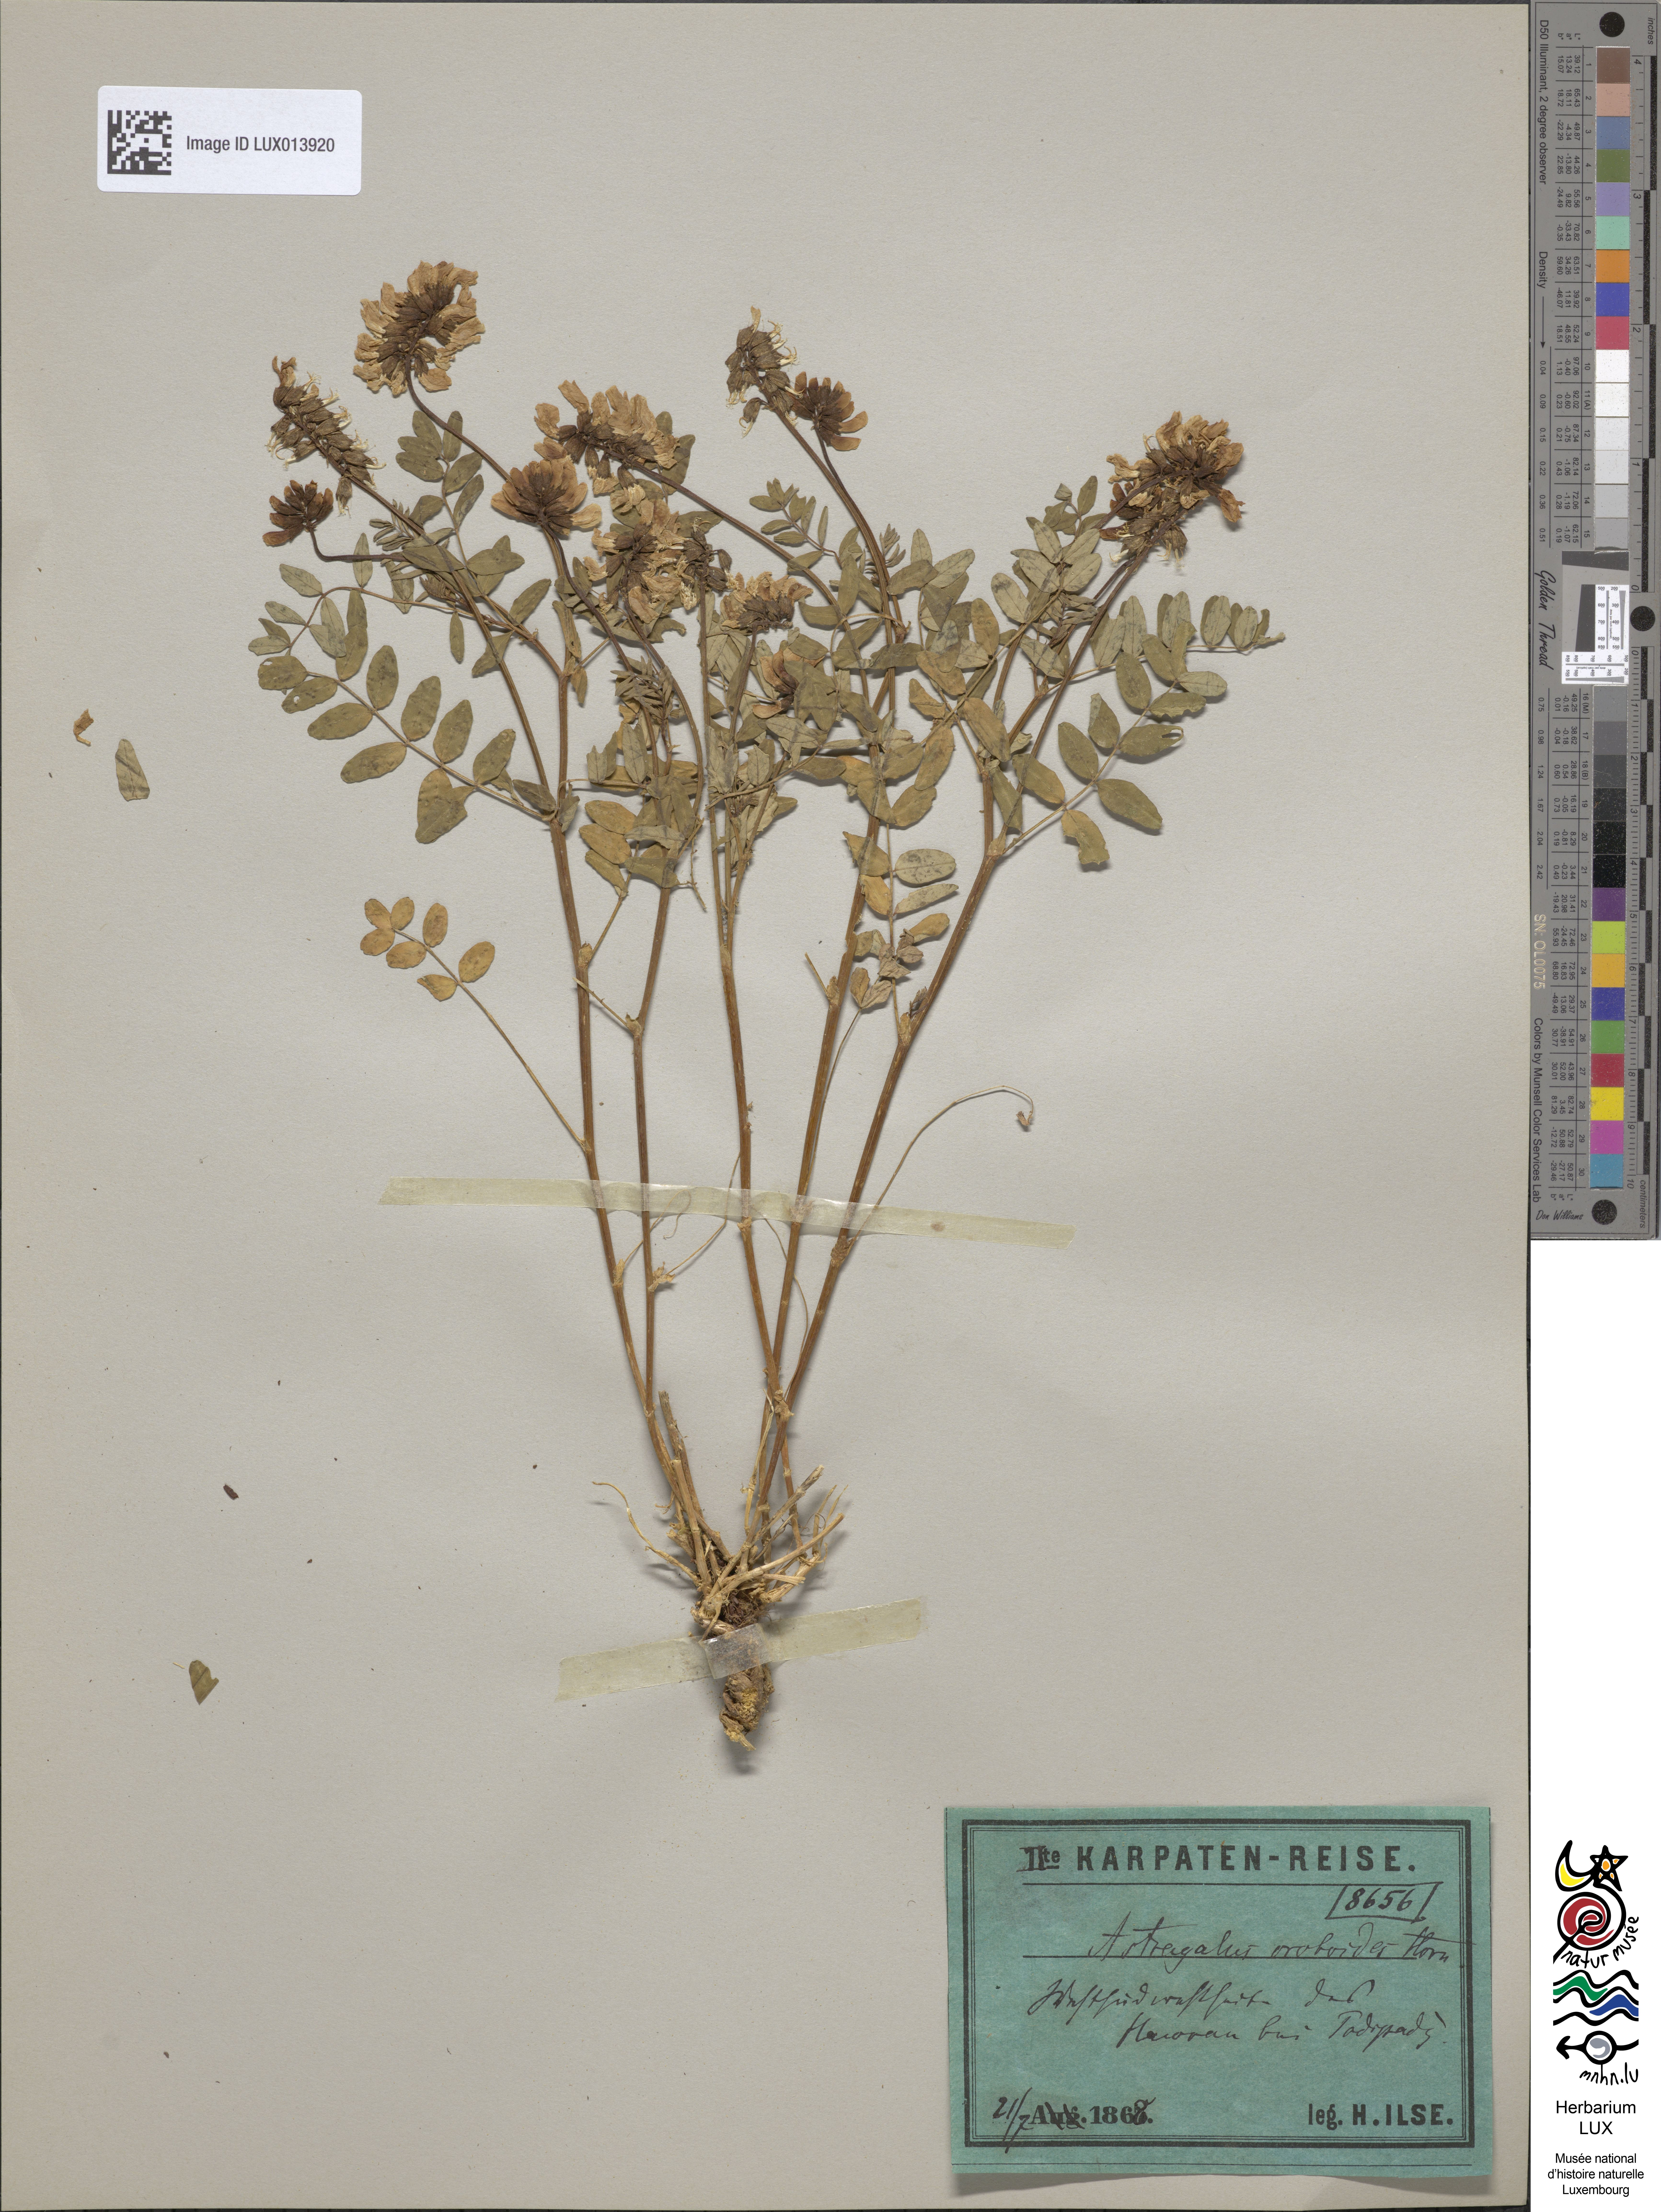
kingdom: Plantae
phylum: Tracheophyta
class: Magnoliopsida
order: Fabales
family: Fabaceae
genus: Astragalus
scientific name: Astragalus norvegicus
